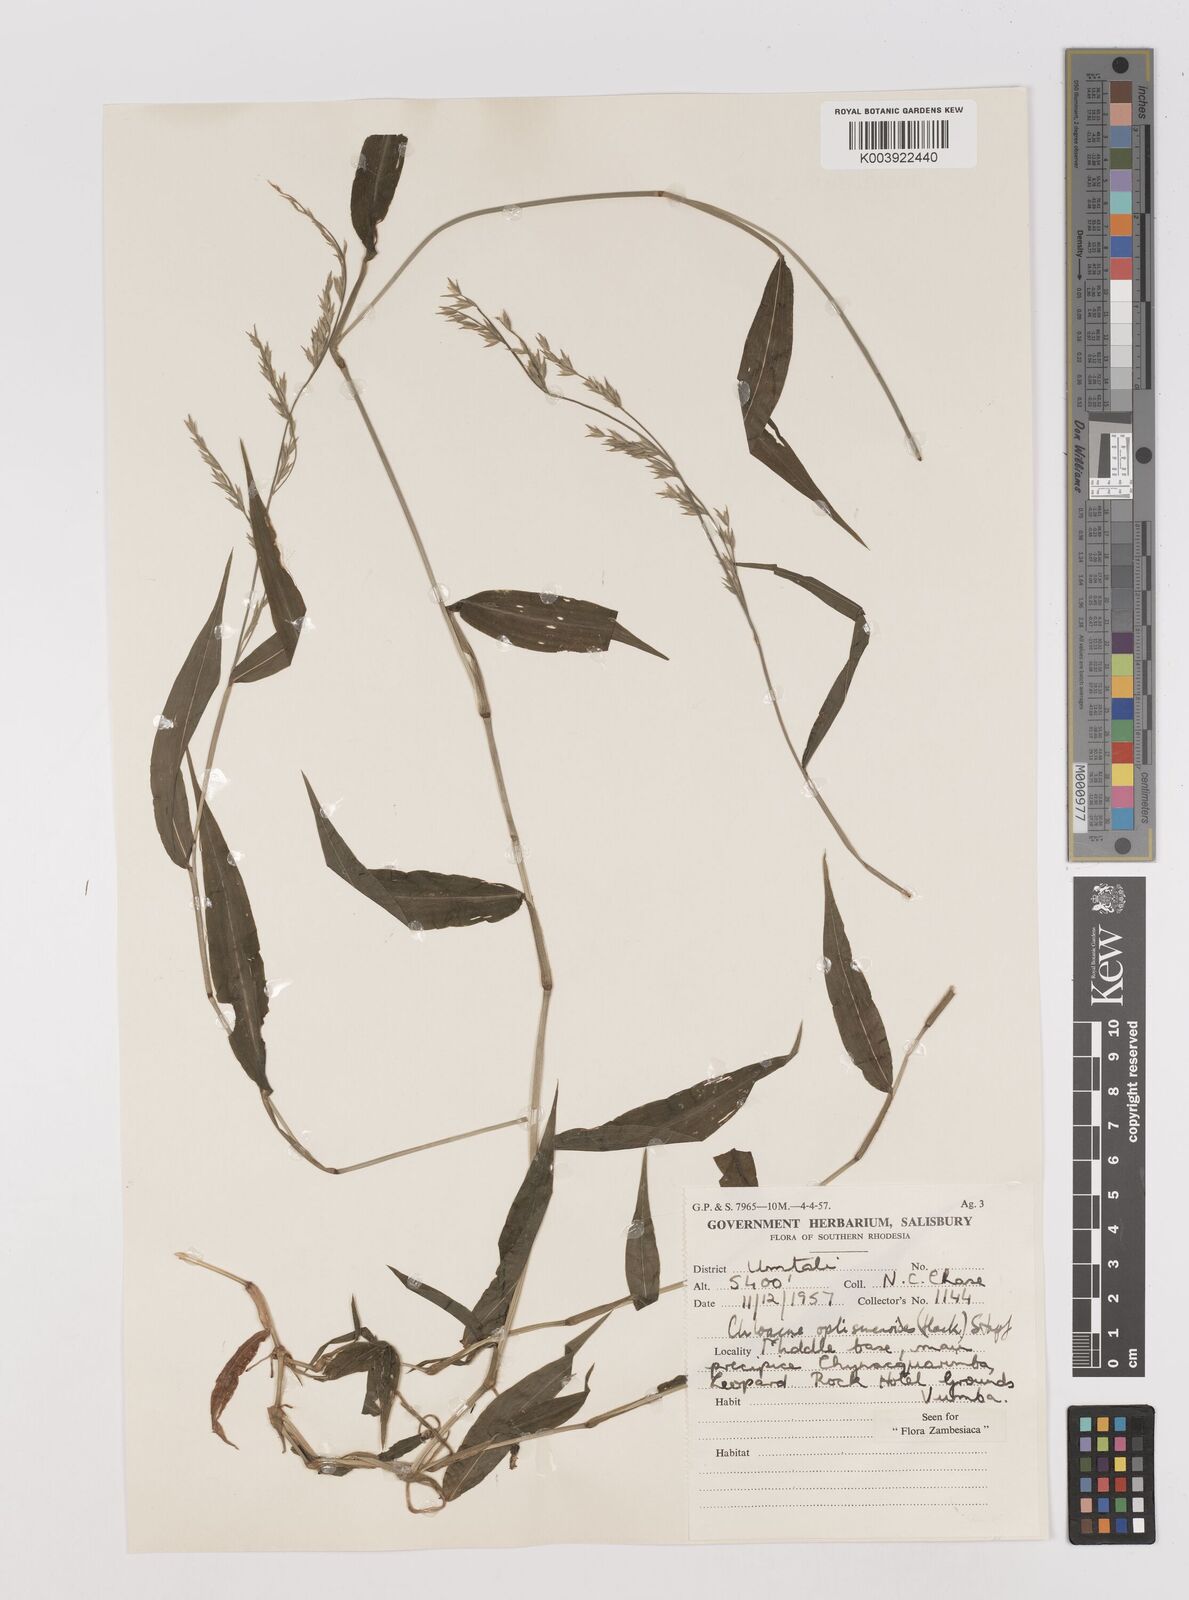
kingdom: Plantae
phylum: Tracheophyta
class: Liliopsida
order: Poales
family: Poaceae
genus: Poecilostachys
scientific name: Poecilostachys oplismenoides
